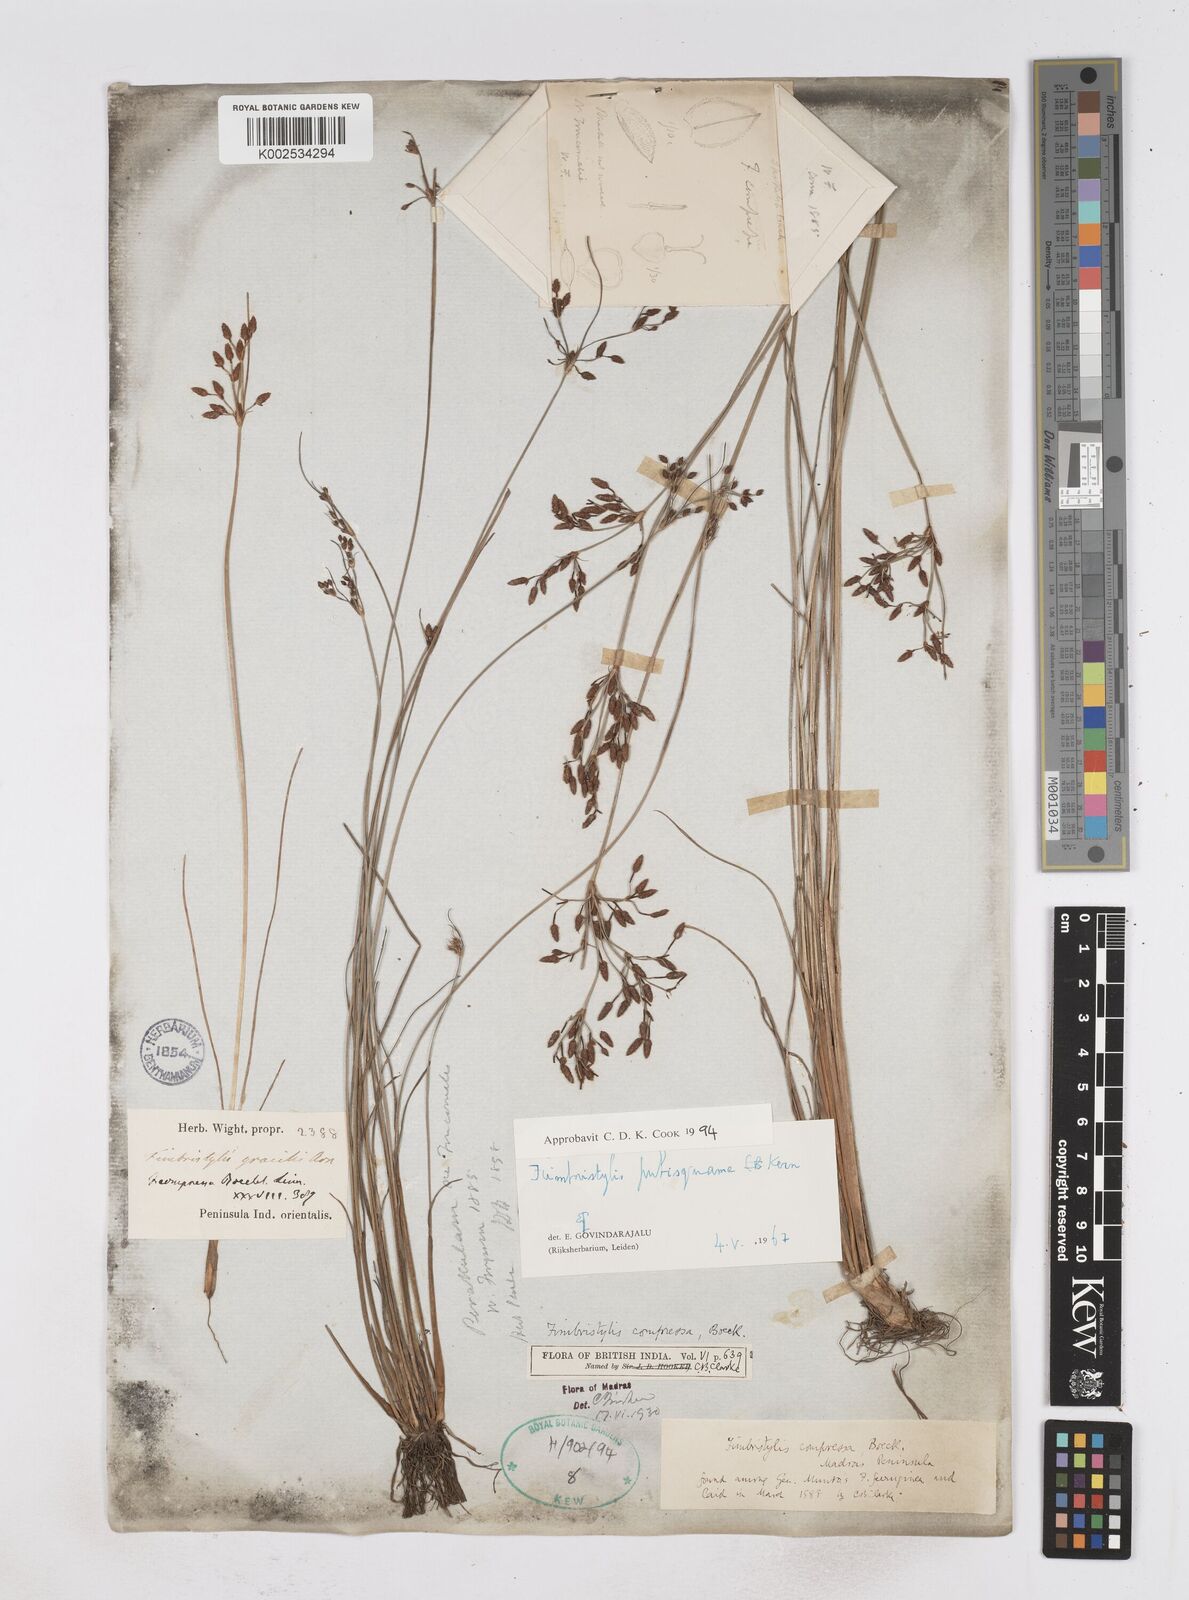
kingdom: Plantae
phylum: Tracheophyta
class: Liliopsida
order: Poales
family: Cyperaceae
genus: Fimbristylis
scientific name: Fimbristylis pubisquama
